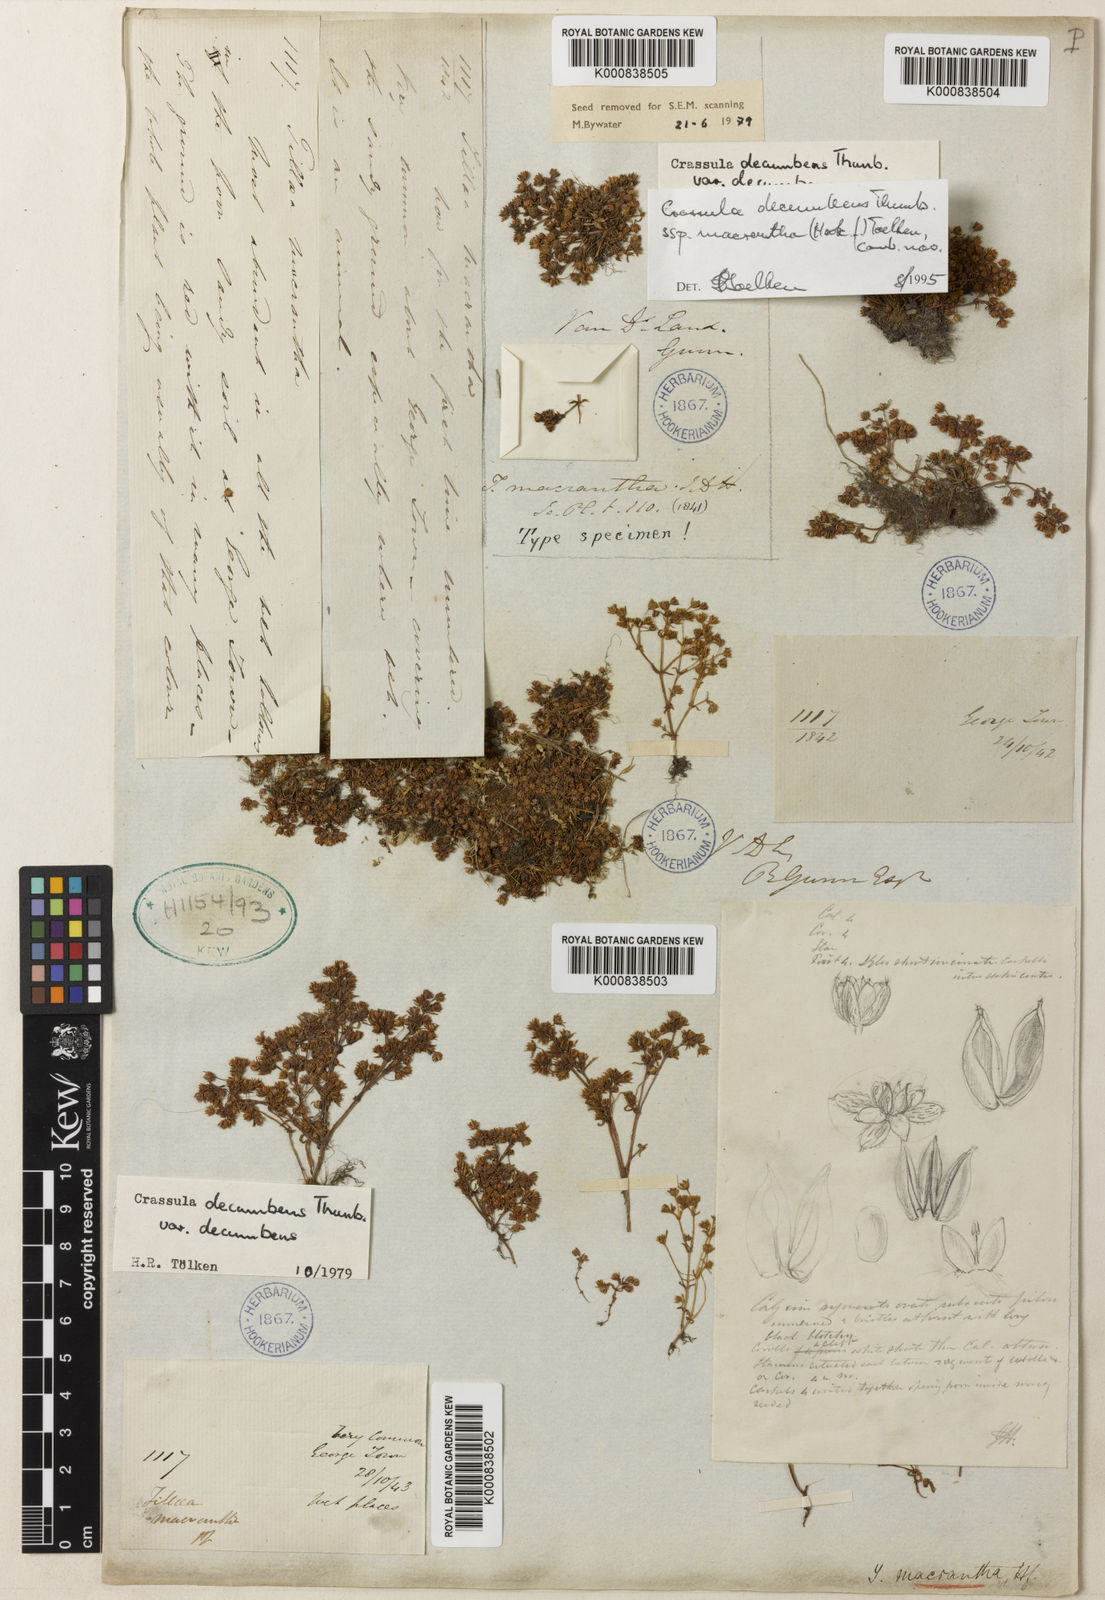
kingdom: Plantae
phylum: Tracheophyta
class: Magnoliopsida
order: Saxifragales
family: Crassulaceae
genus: Crassula
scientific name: Crassula decumbens
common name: Scilly pigmyweed
